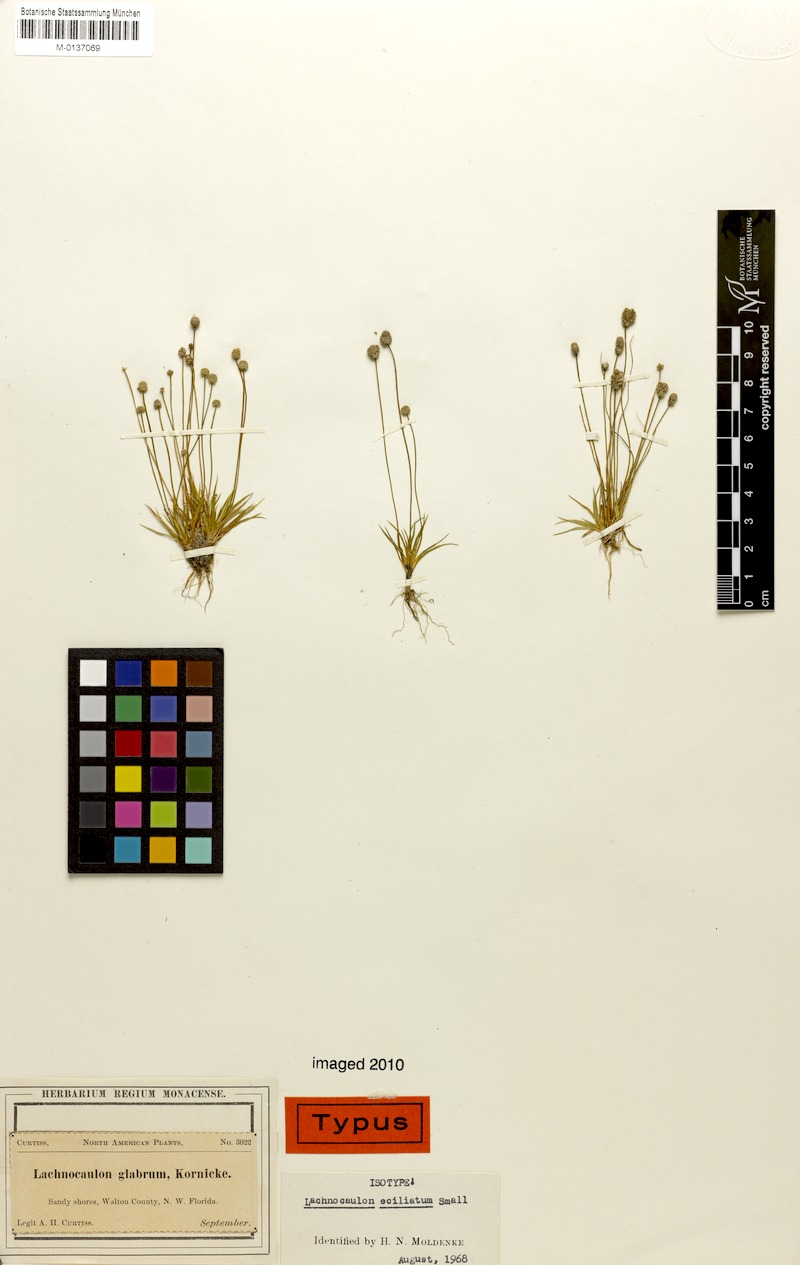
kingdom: Plantae
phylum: Tracheophyta
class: Liliopsida
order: Poales
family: Eriocaulaceae
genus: Paepalanthus
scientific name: Paepalanthus minus
